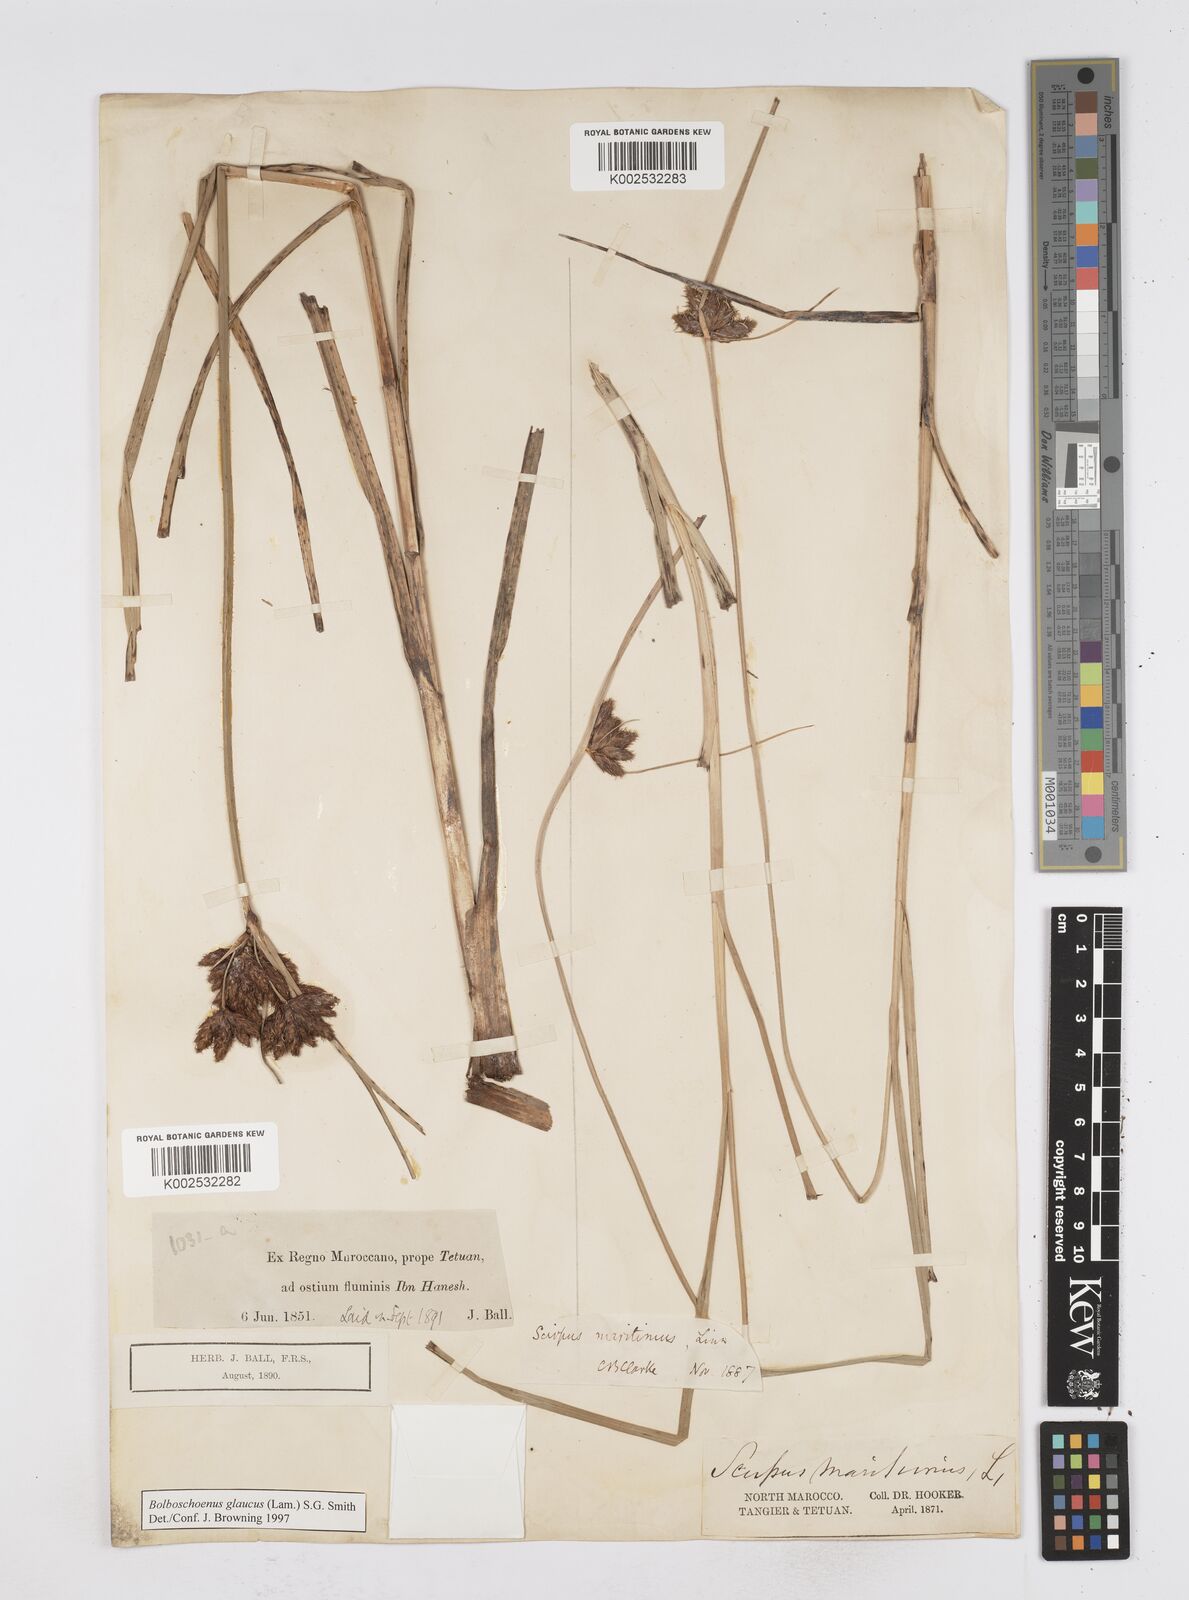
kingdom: Plantae
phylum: Tracheophyta
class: Liliopsida
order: Poales
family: Cyperaceae
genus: Bolboschoenus
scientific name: Bolboschoenus maritimus
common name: Sea club-rush
